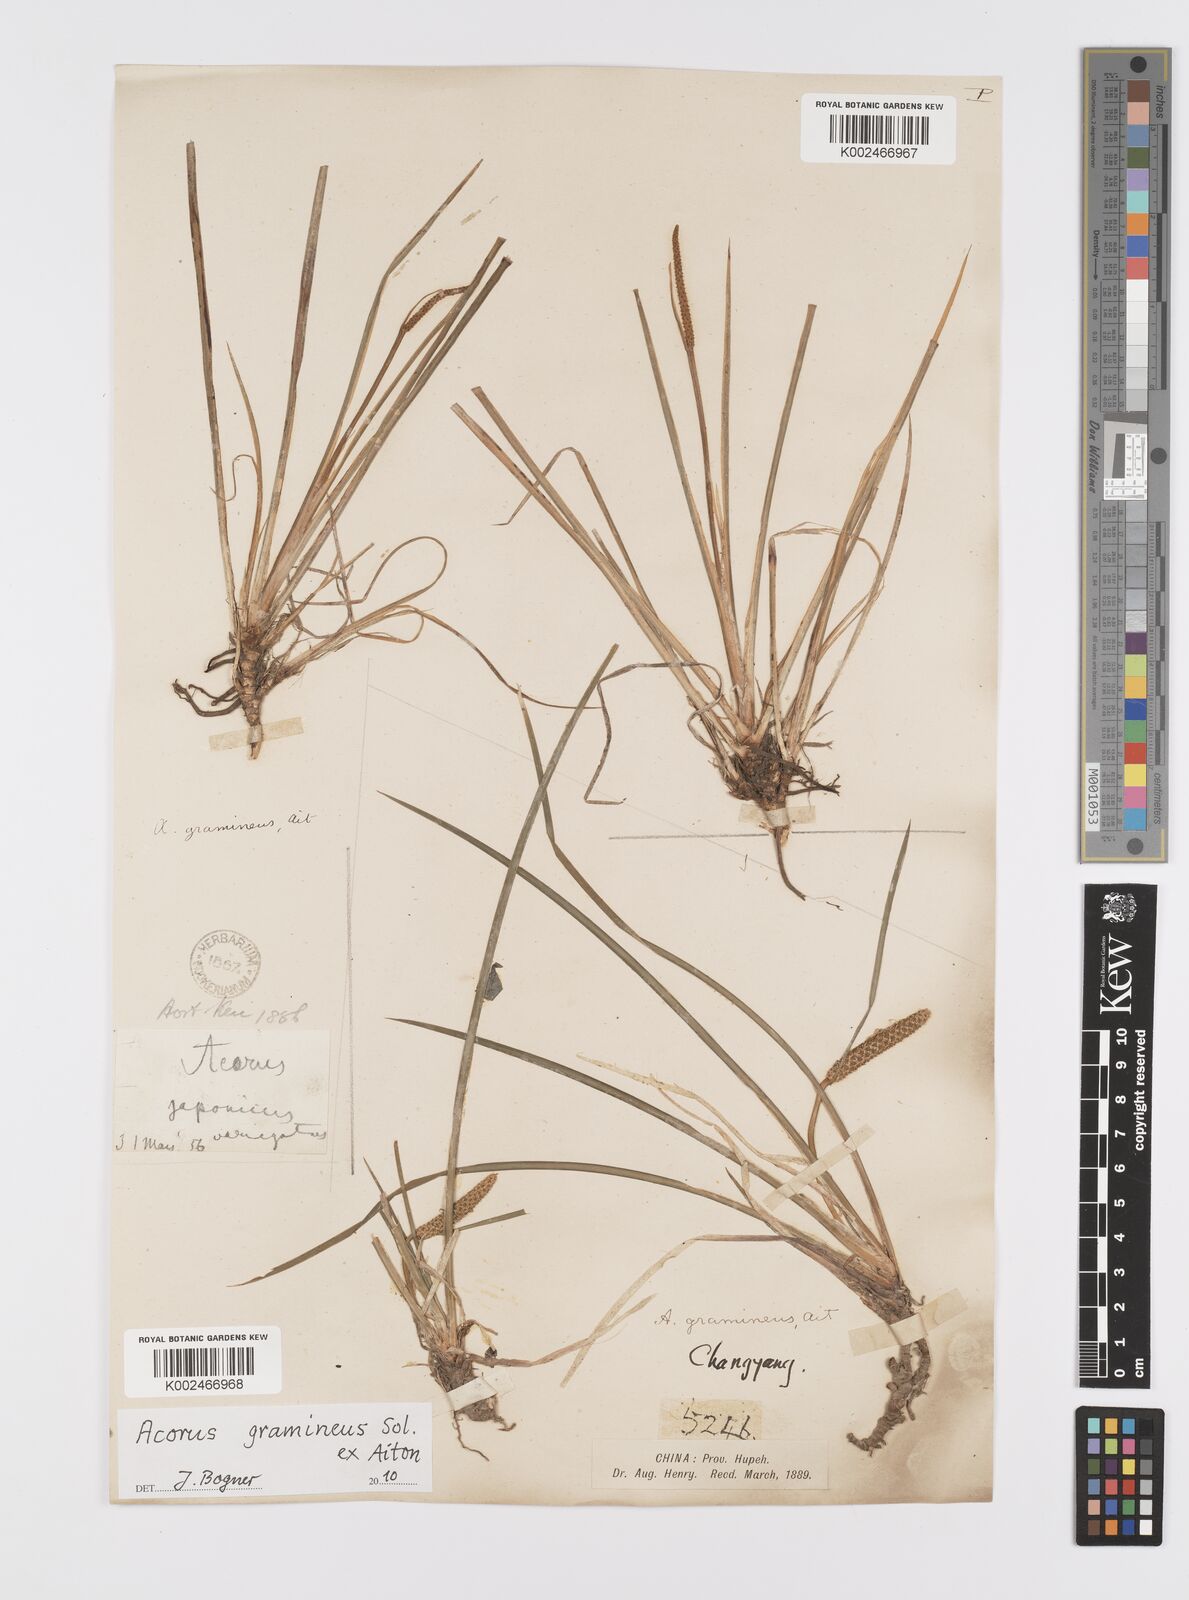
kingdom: Plantae
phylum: Tracheophyta
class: Liliopsida
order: Acorales
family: Acoraceae
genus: Acorus
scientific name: Acorus gramineus
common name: Slender sweet-flag
